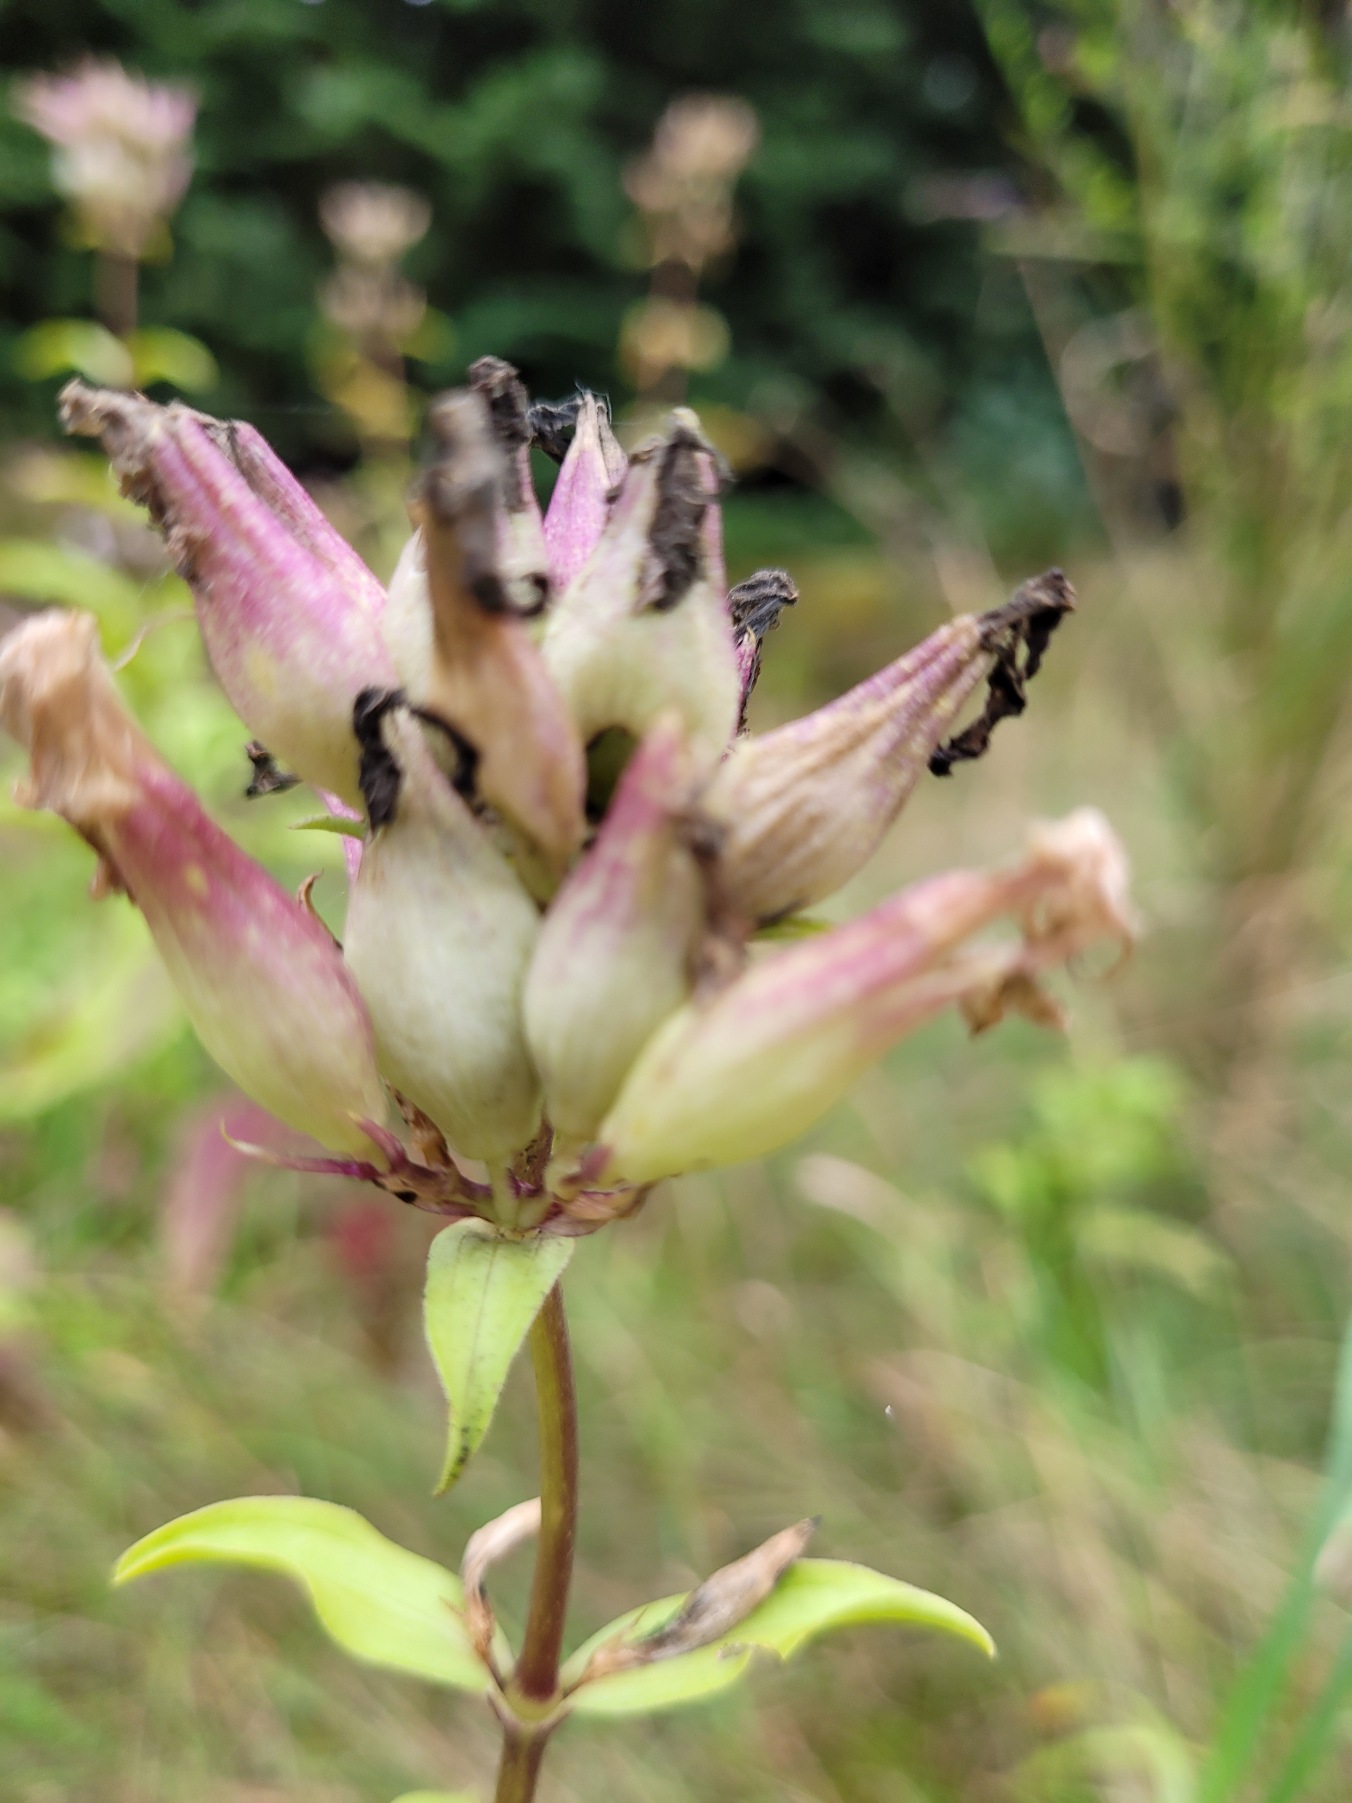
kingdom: Plantae
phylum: Tracheophyta
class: Magnoliopsida
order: Caryophyllales
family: Caryophyllaceae
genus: Saponaria
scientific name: Saponaria officinalis
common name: Sæbeurt
